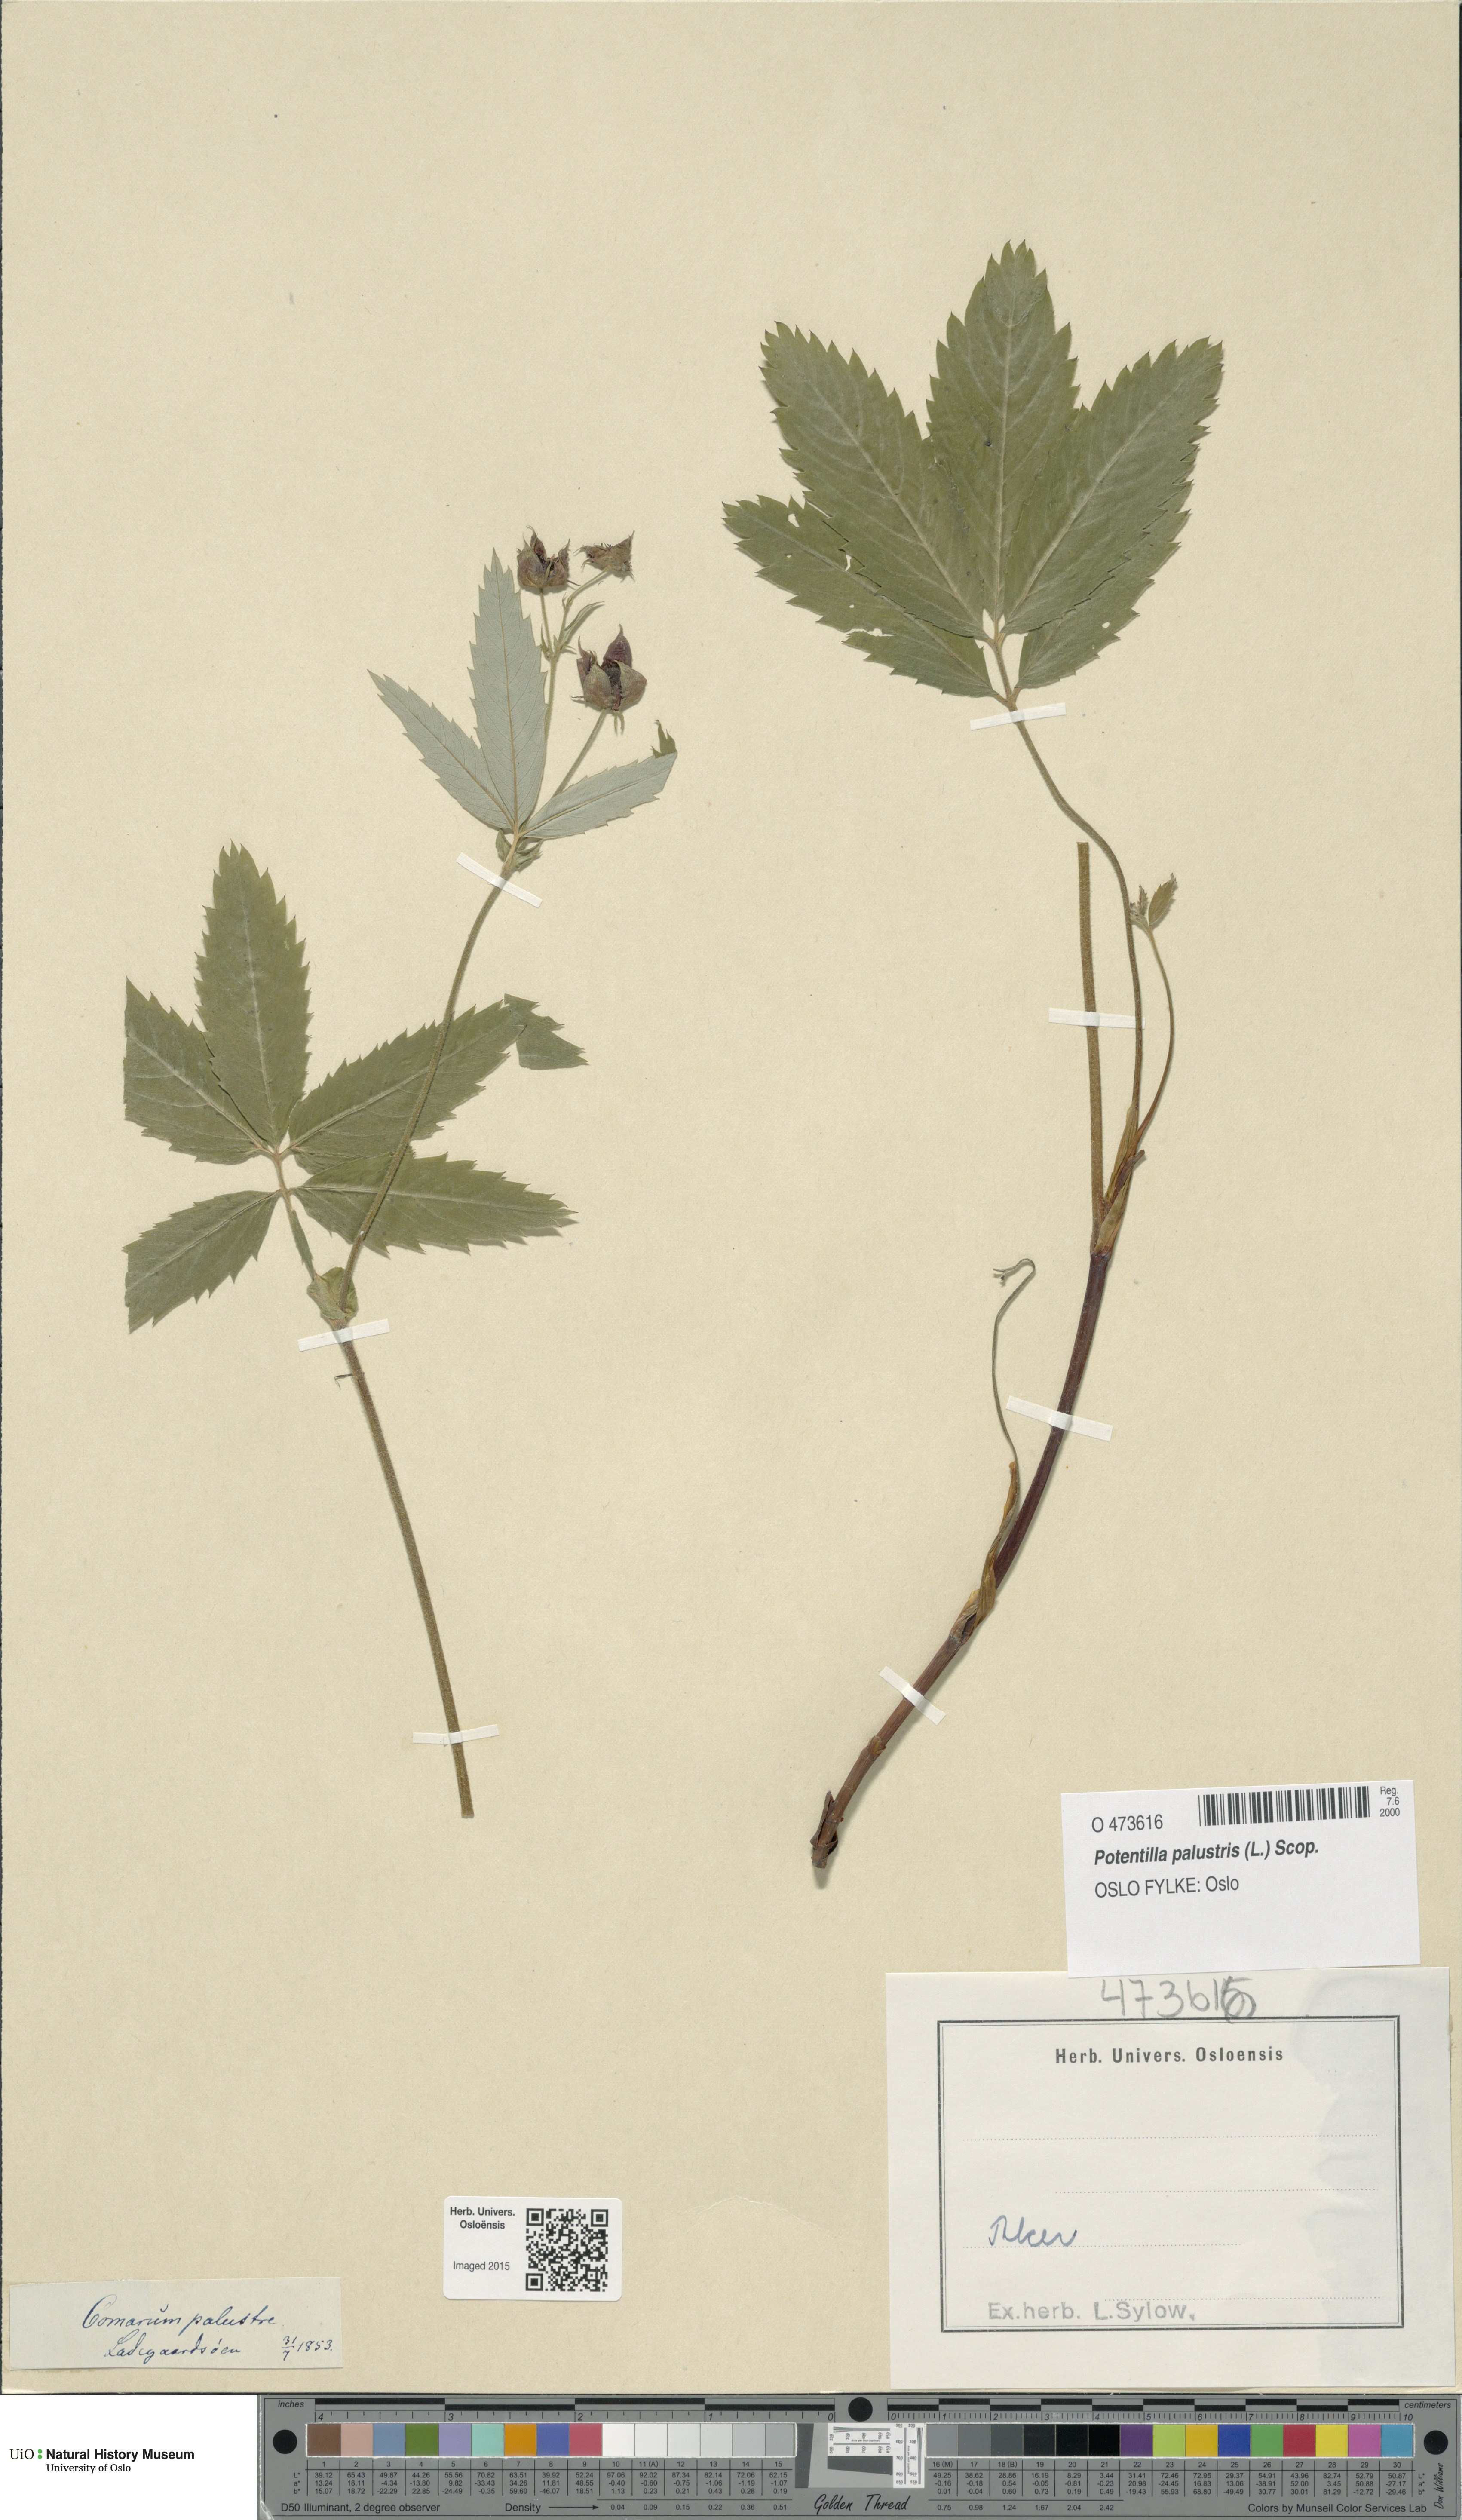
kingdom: Plantae
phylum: Tracheophyta
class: Magnoliopsida
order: Rosales
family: Rosaceae
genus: Comarum
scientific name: Comarum palustre
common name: Marsh cinquefoil
